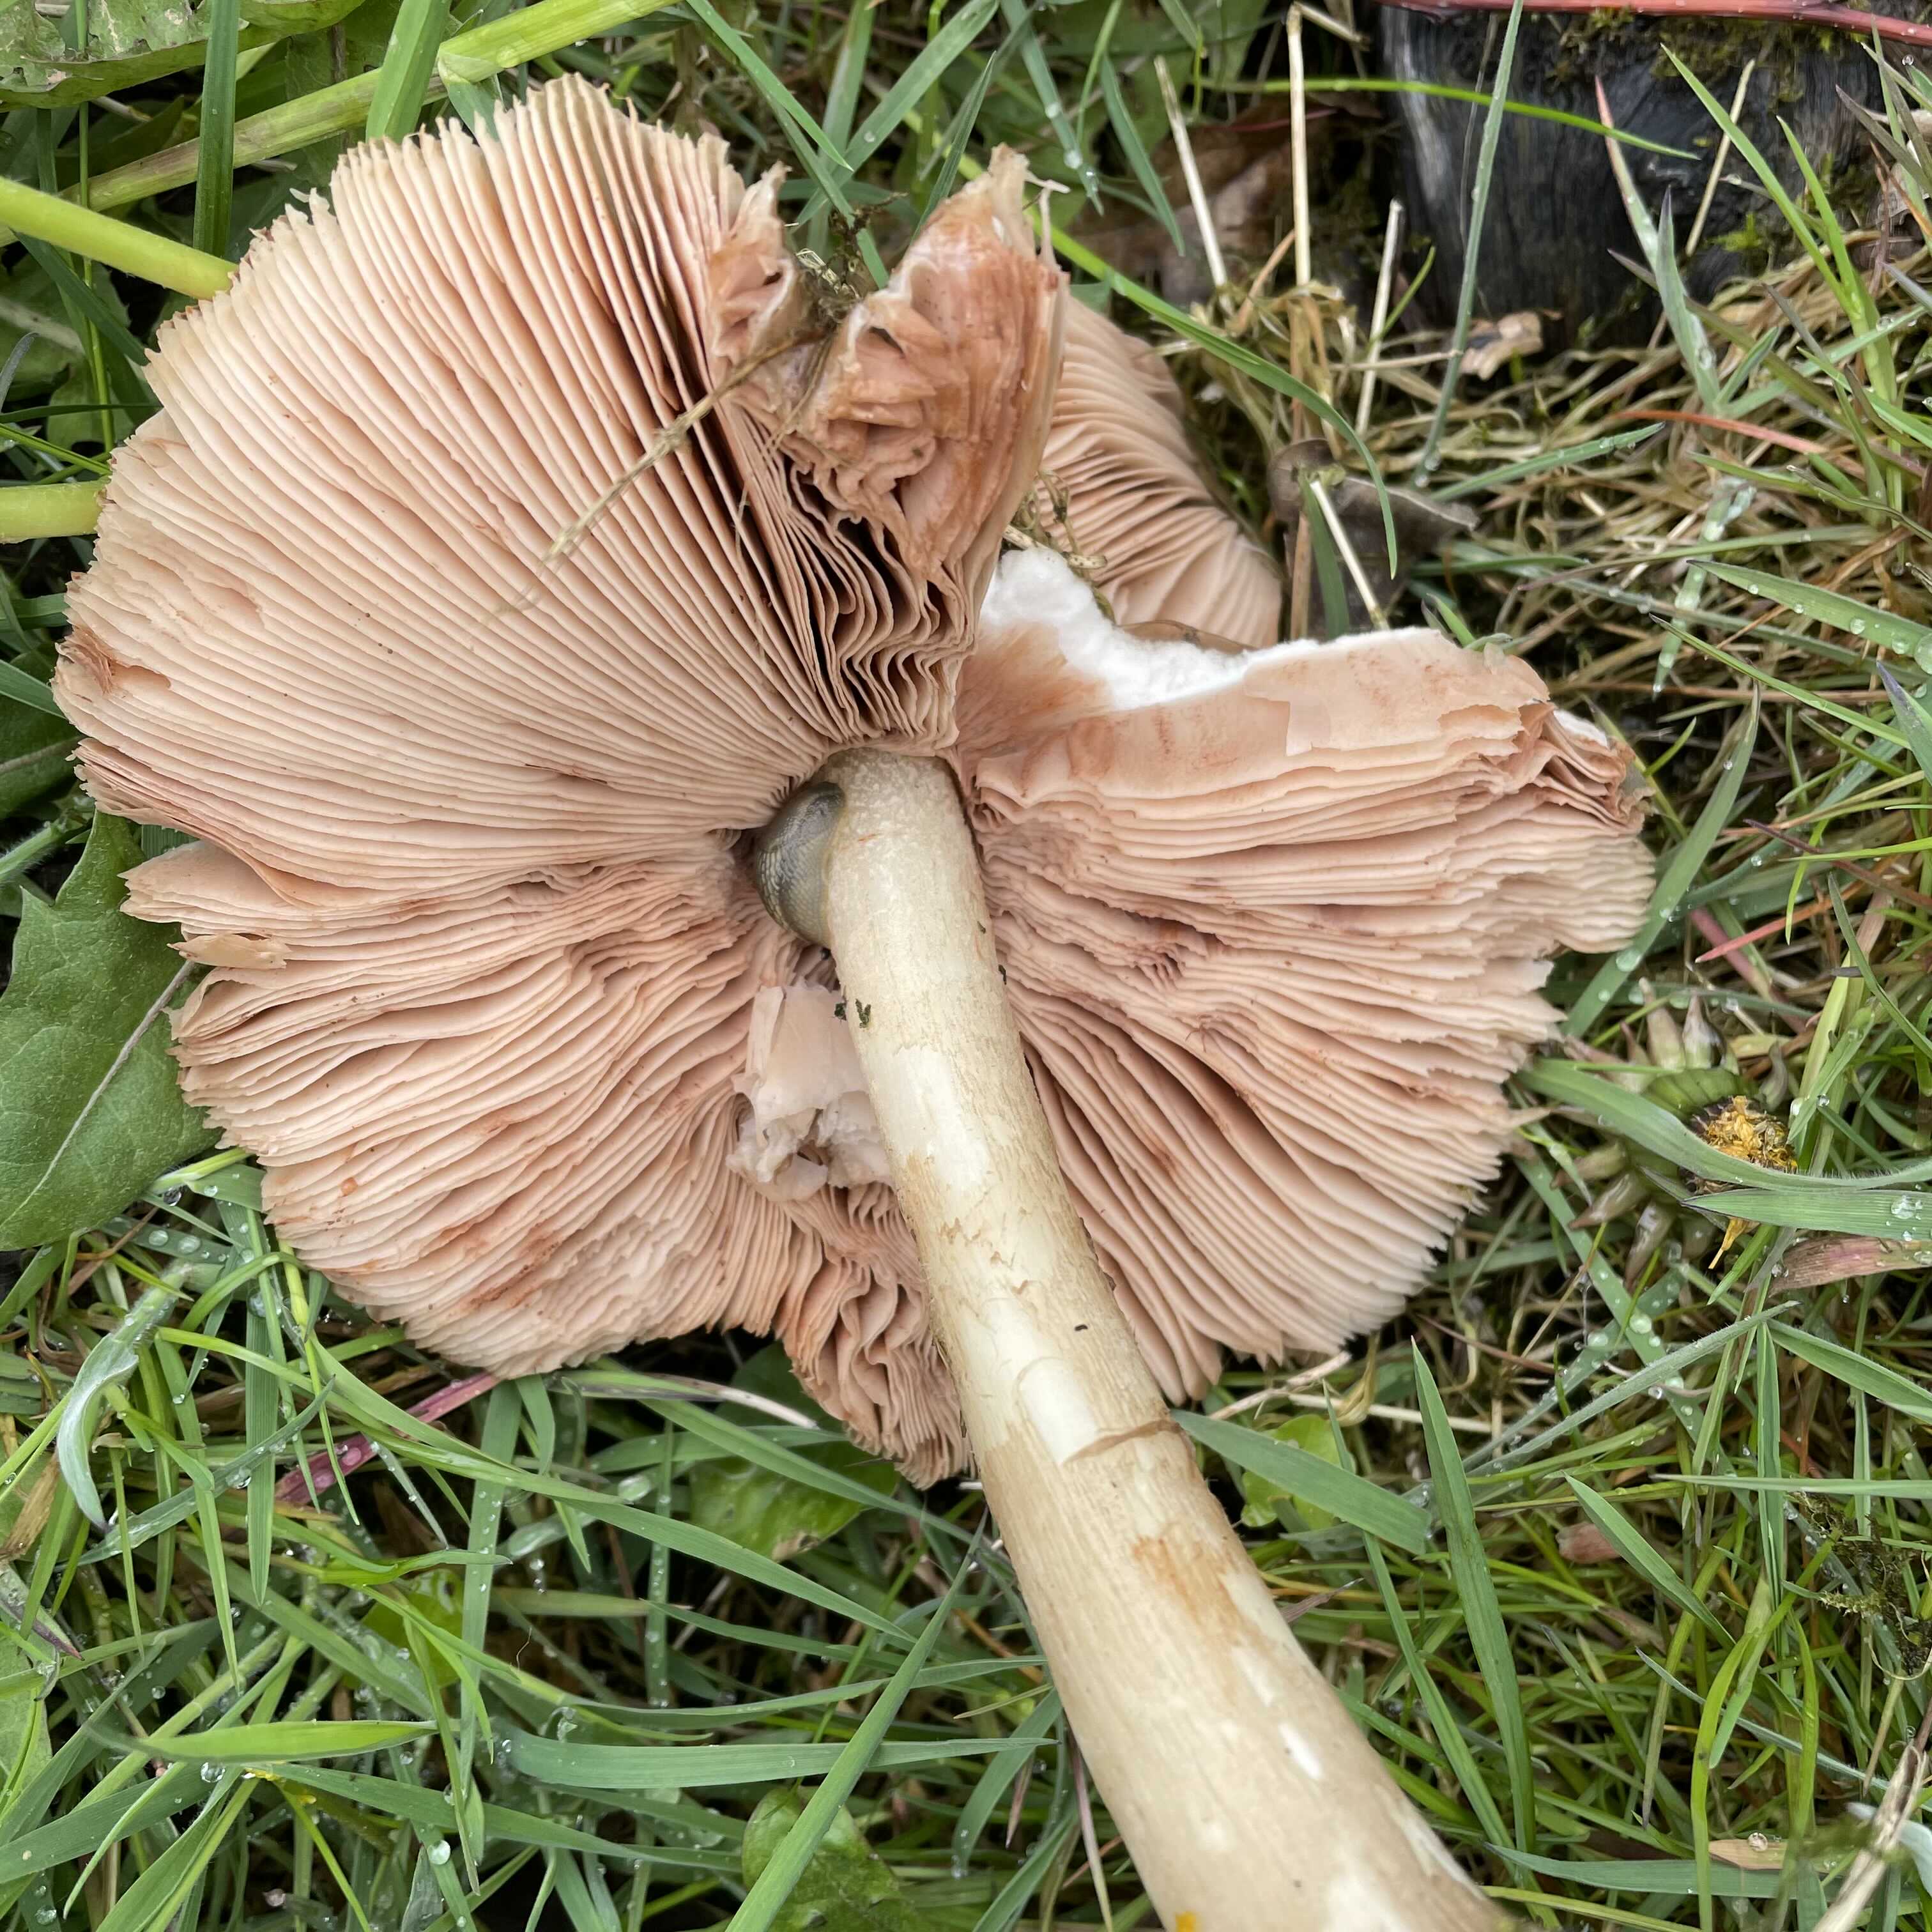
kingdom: Fungi
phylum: Basidiomycota
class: Agaricomycetes
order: Agaricales
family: Pluteaceae
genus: Pluteus
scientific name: Pluteus cervinus
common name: sodfarvet skærmhat
